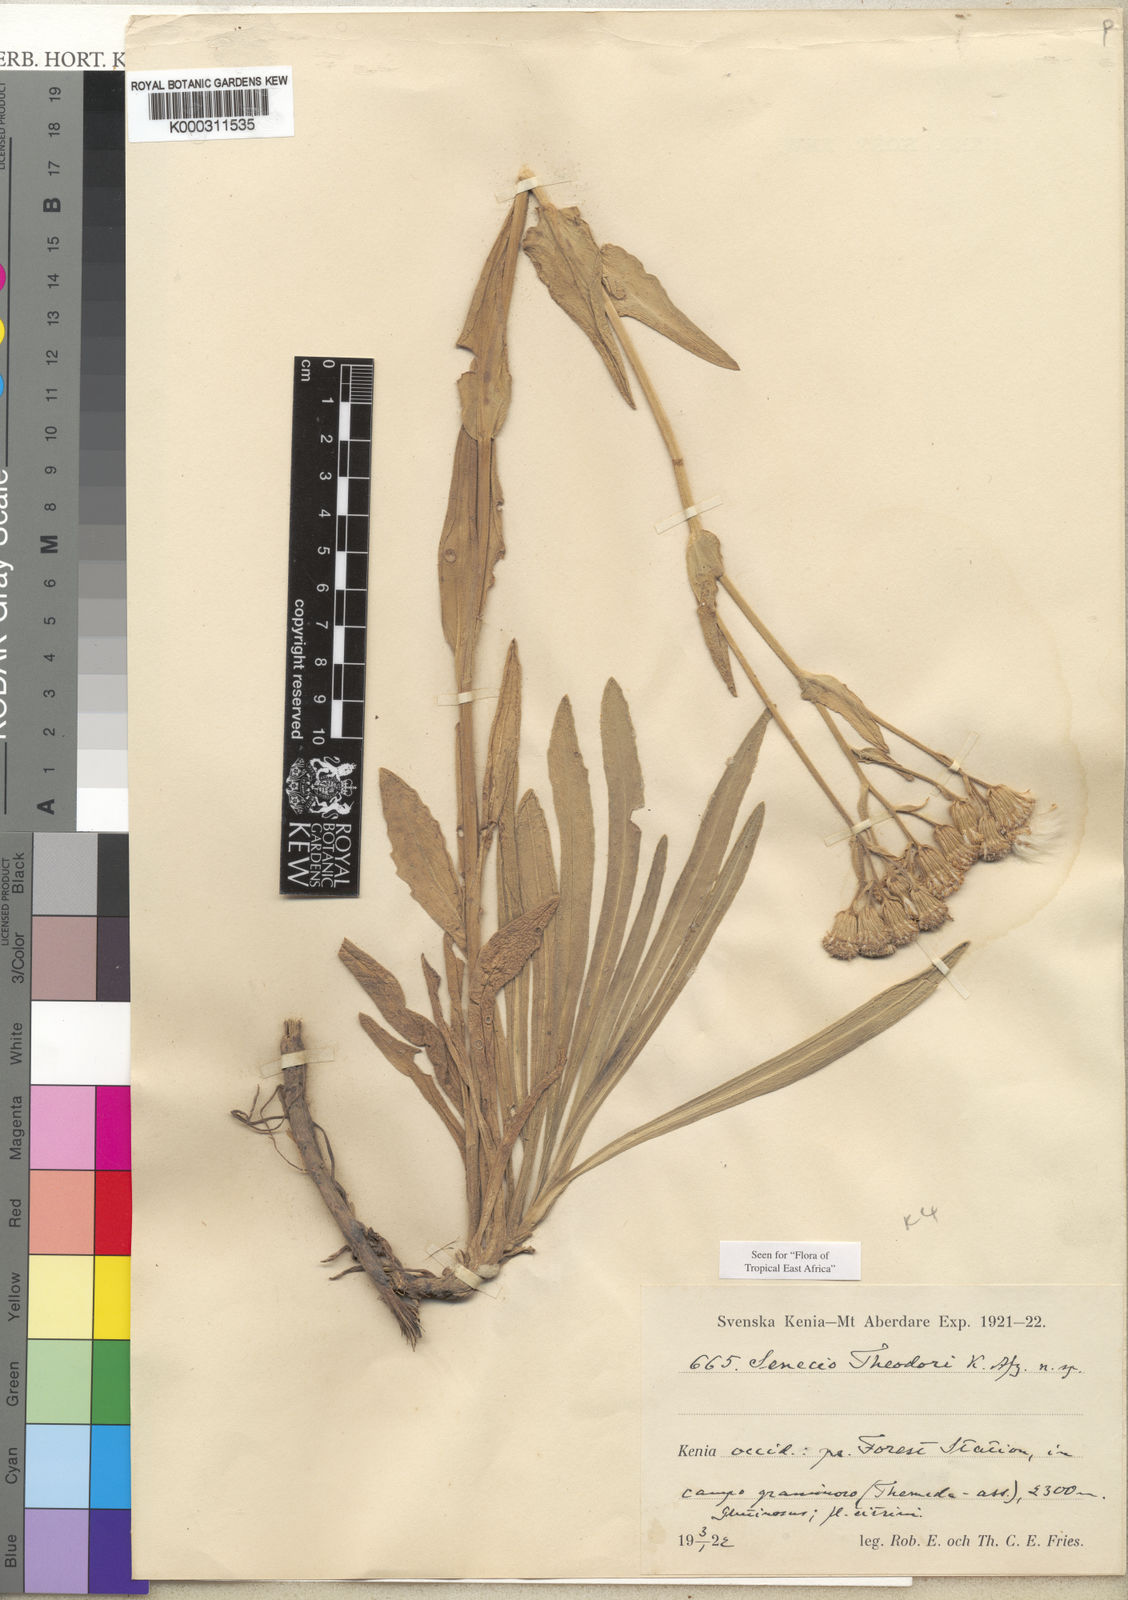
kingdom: Plantae
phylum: Tracheophyta
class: Magnoliopsida
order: Asterales
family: Asteraceae
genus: Senecio
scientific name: Senecio schweinfurthii
